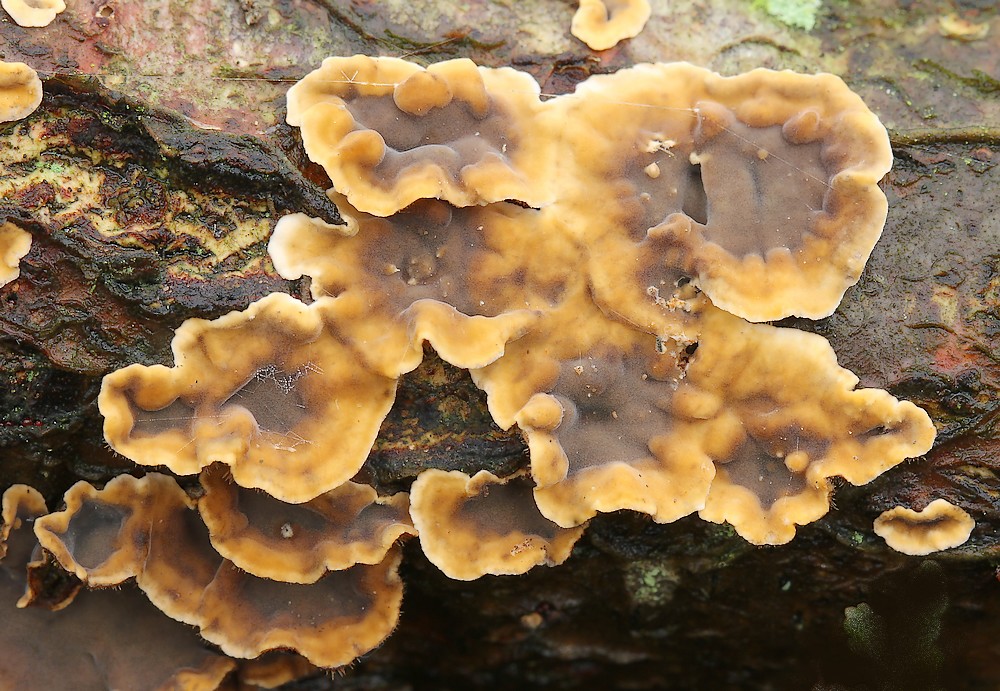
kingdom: Fungi
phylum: Basidiomycota
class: Agaricomycetes
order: Russulales
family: Stereaceae
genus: Stereum
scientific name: Stereum hirsutum
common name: håret lædersvamp
